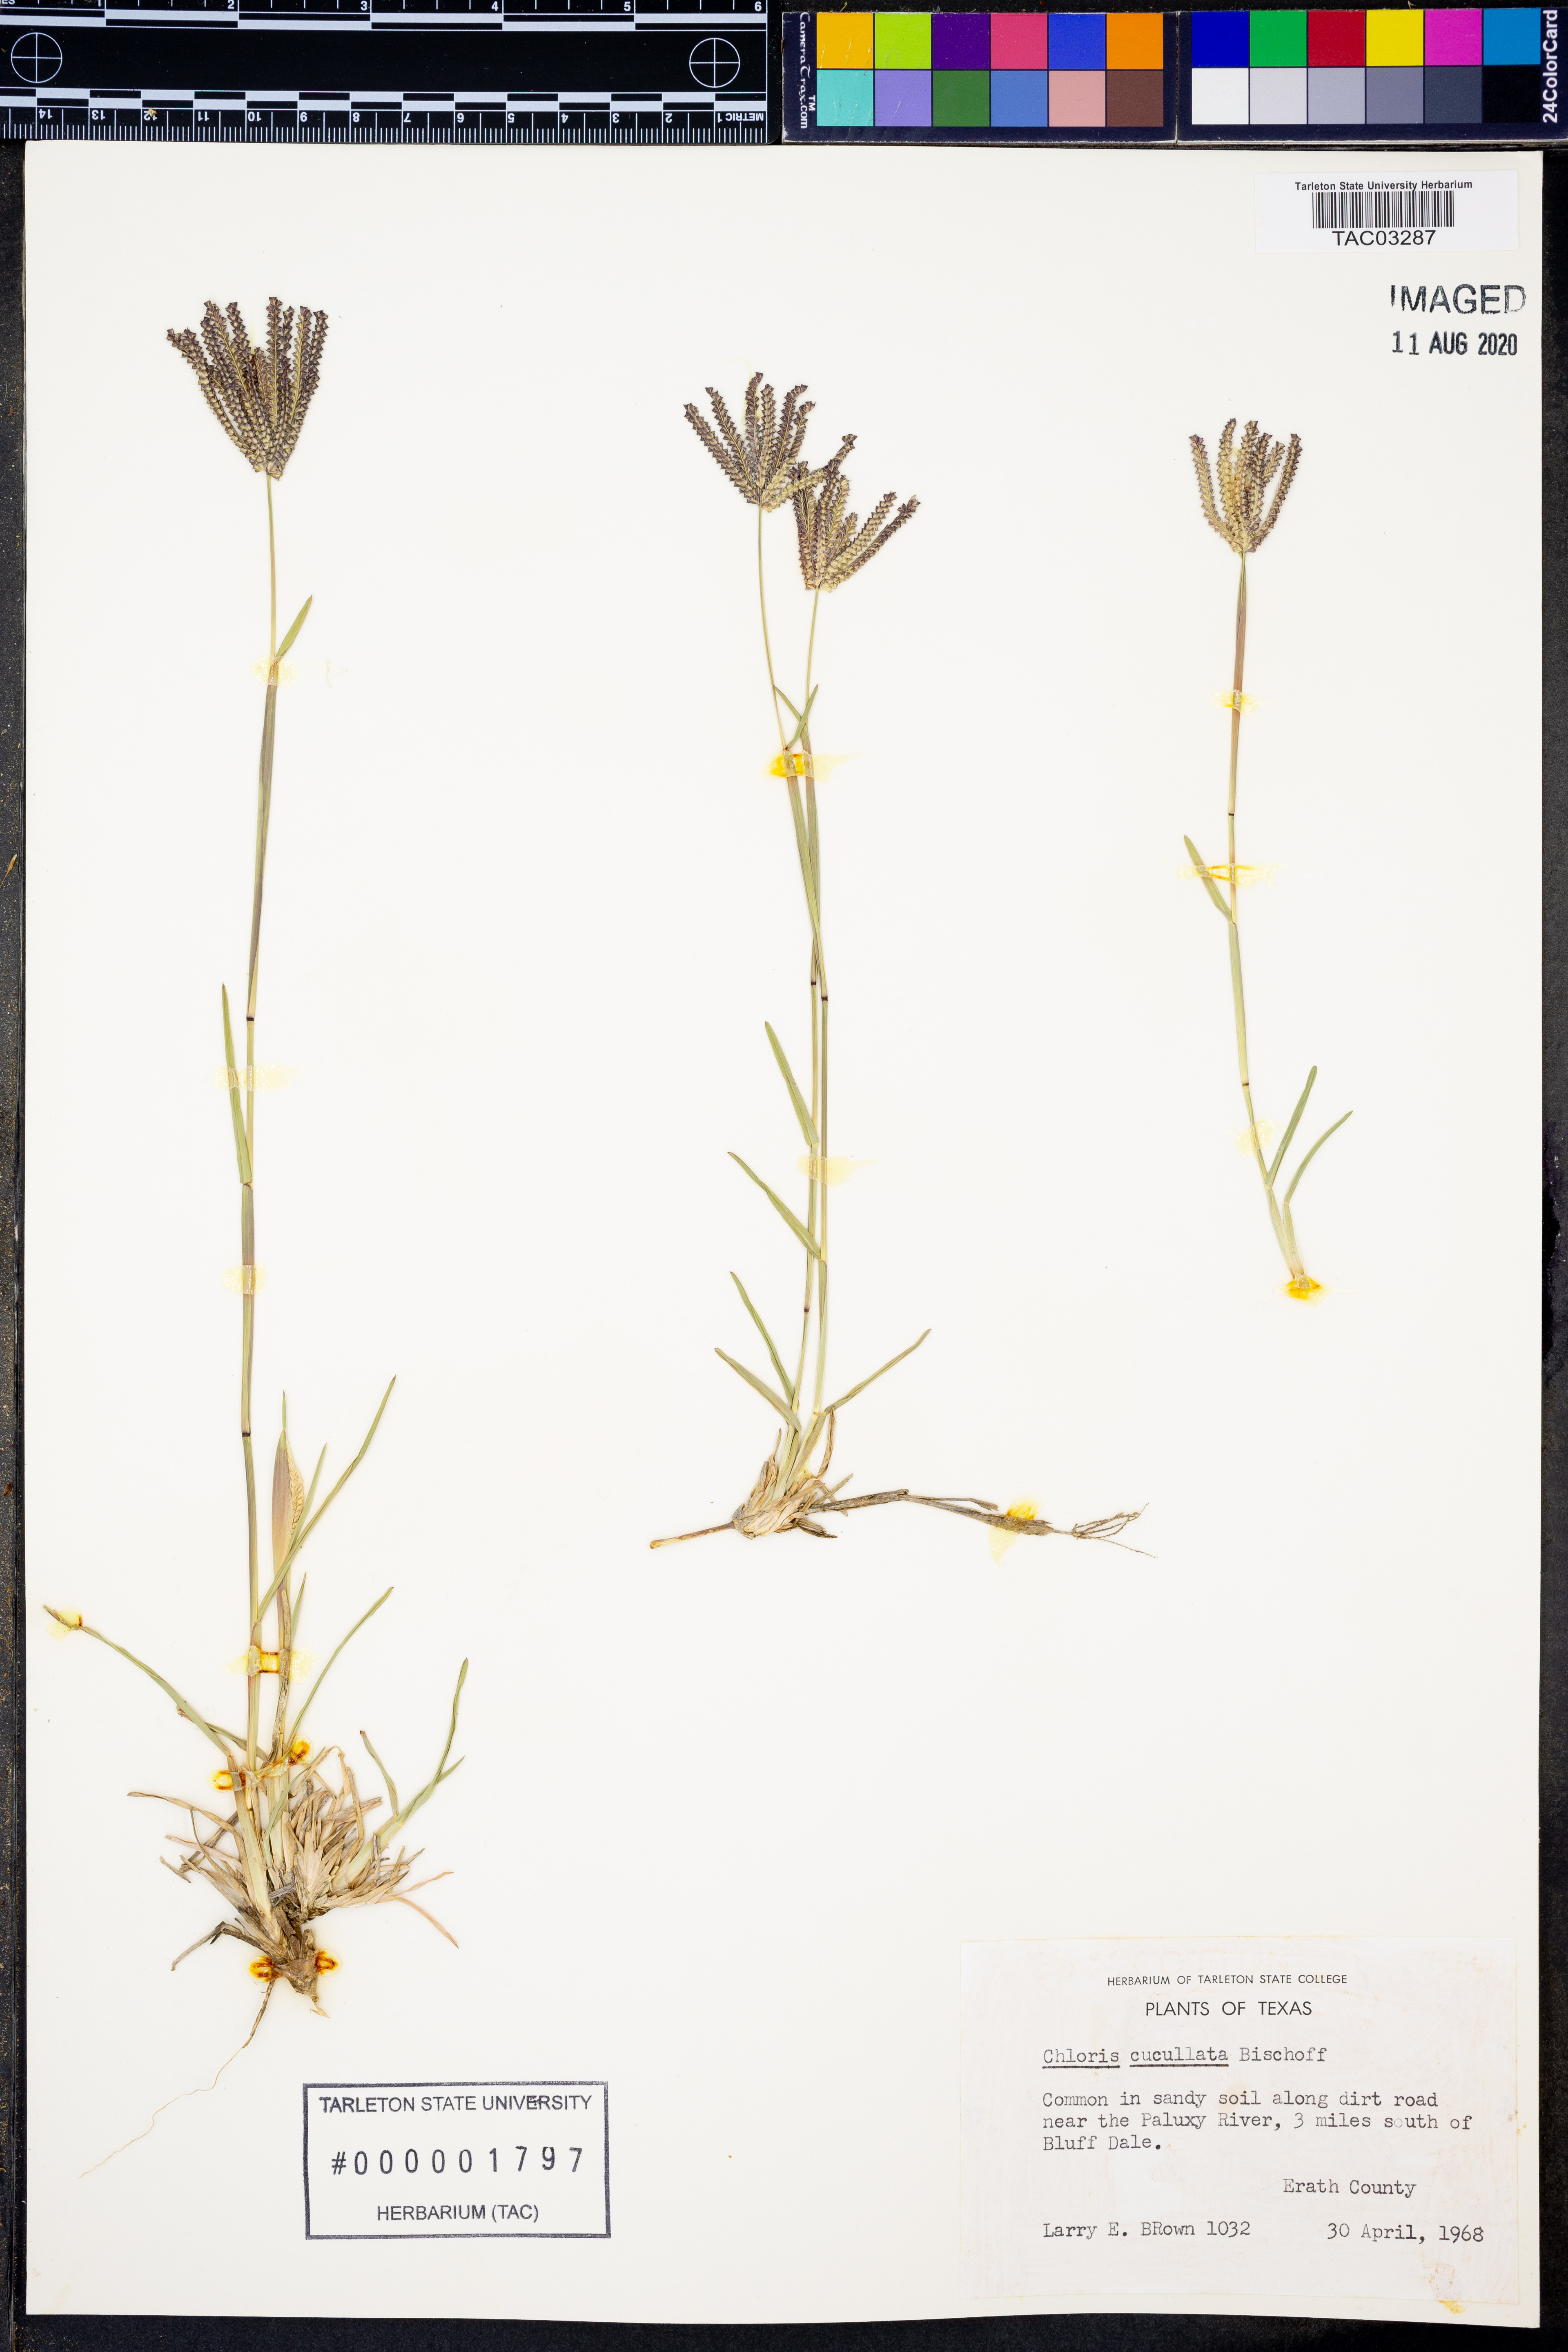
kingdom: Plantae
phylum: Tracheophyta
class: Liliopsida
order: Poales
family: Poaceae
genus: Chloris
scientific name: Chloris cucullata
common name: Hooded windmill grass
